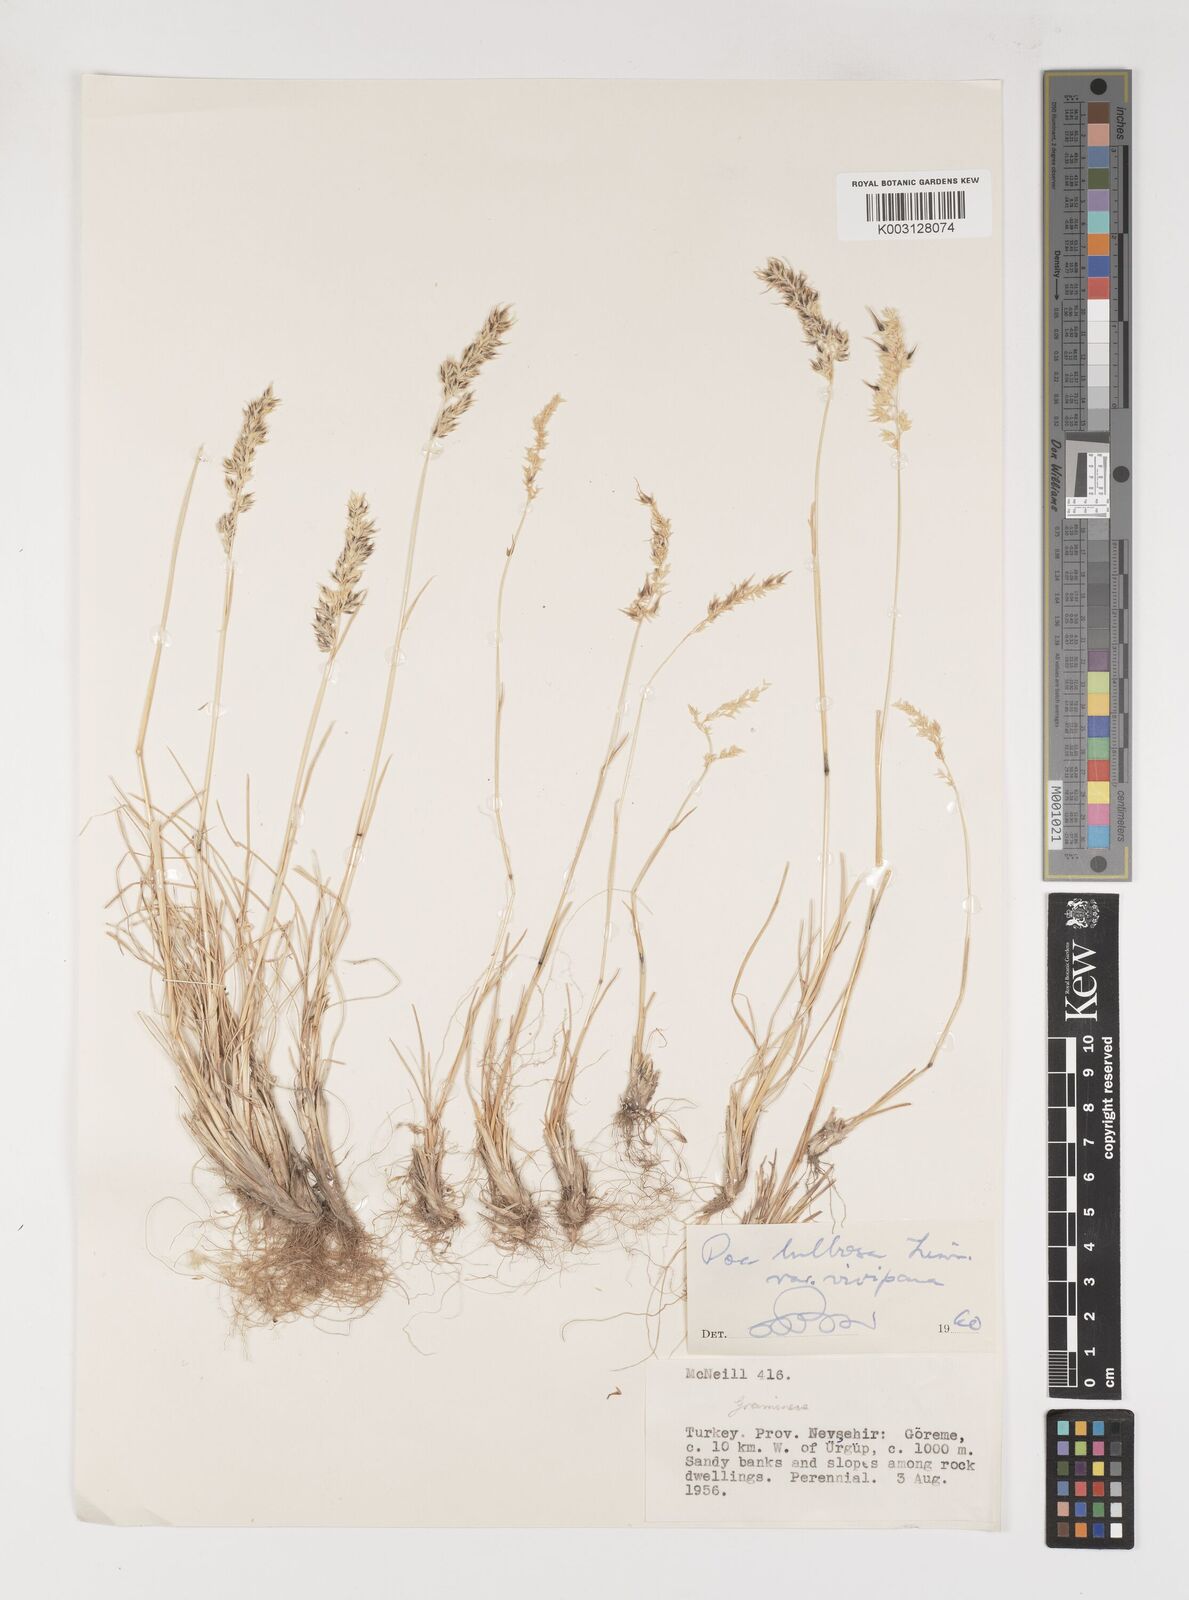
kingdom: Plantae
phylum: Tracheophyta
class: Liliopsida
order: Poales
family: Poaceae
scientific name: Poaceae
